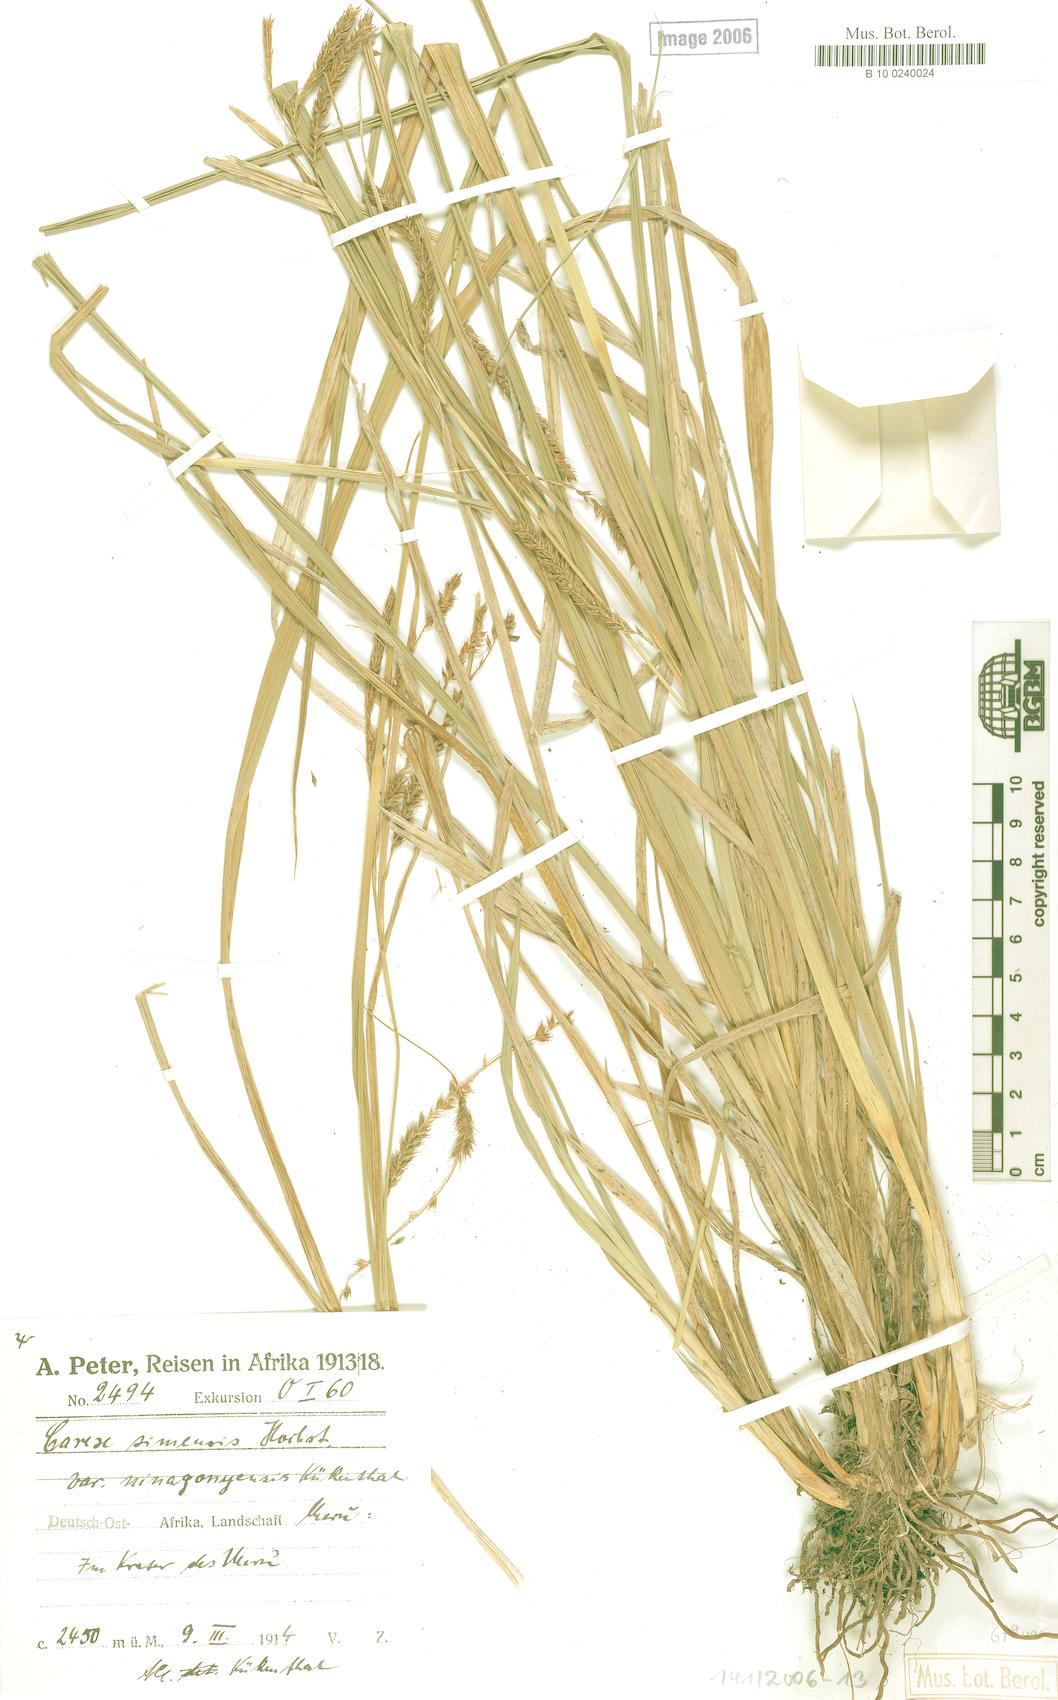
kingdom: Plantae
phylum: Tracheophyta
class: Liliopsida
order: Poales
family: Cyperaceae
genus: Carex
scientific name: Carex simensis
